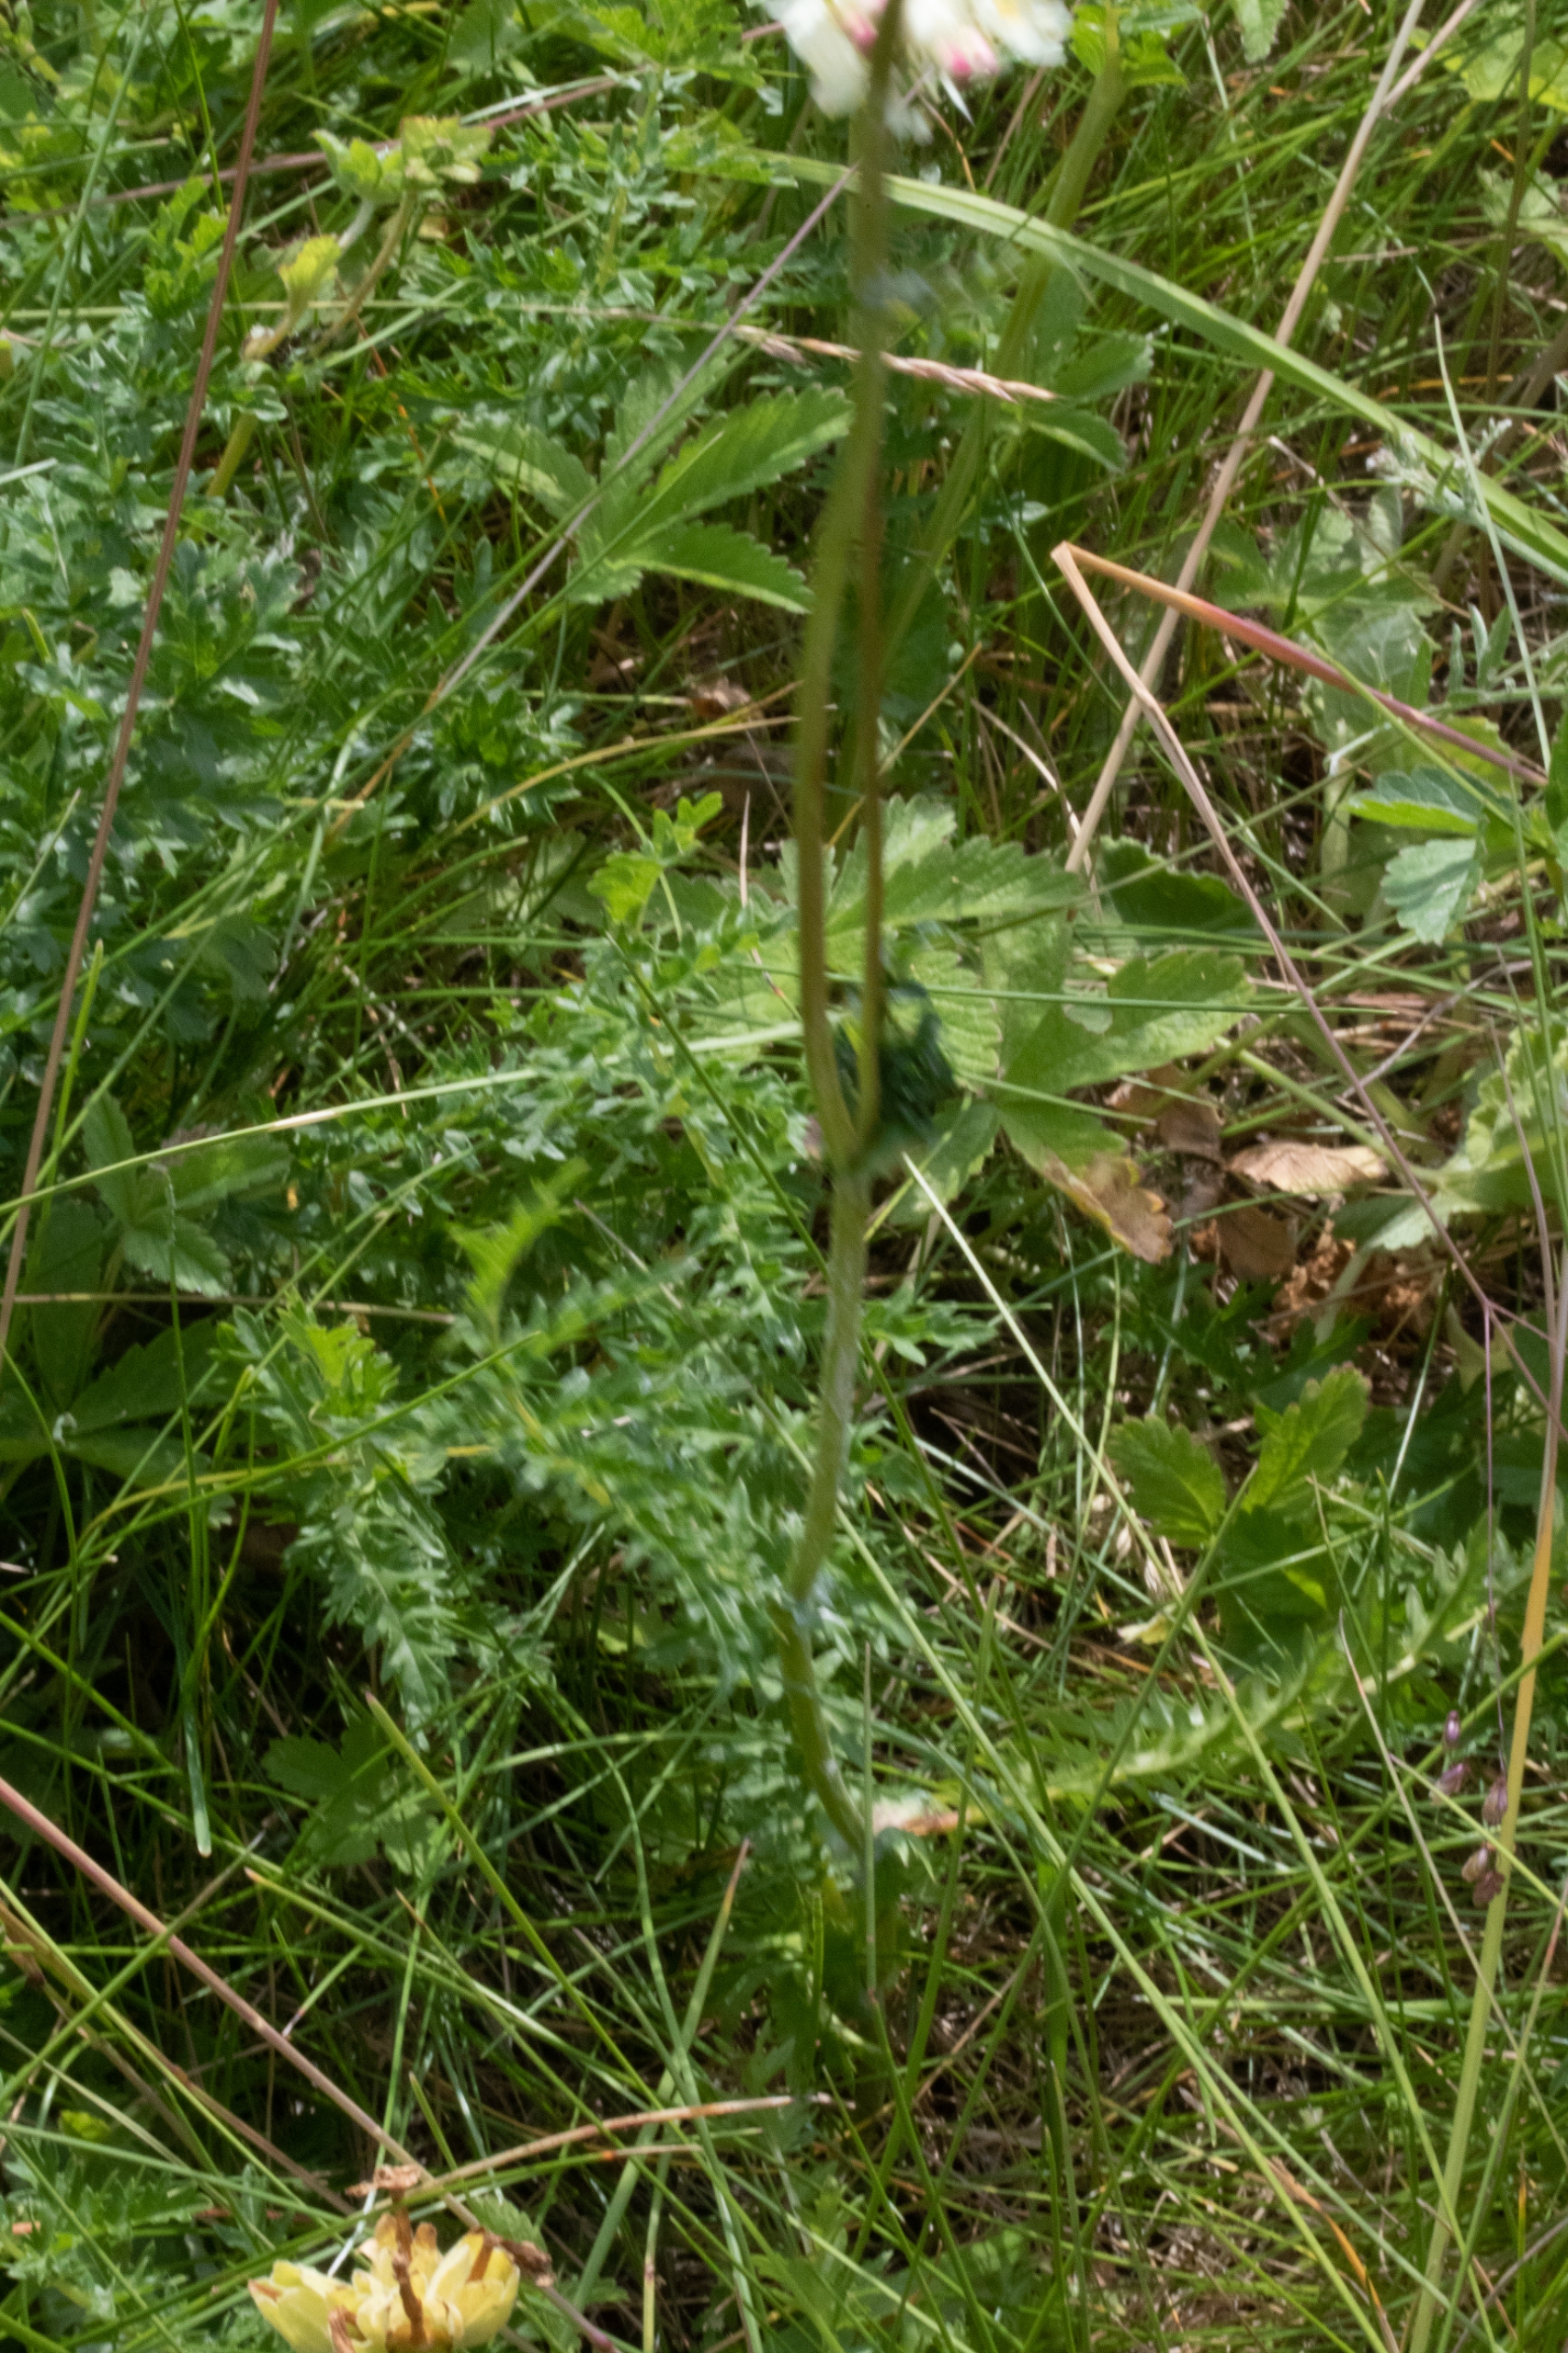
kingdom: Plantae
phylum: Tracheophyta
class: Magnoliopsida
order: Rosales
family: Rosaceae
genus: Filipendula
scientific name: Filipendula vulgaris
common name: Knoldet mjødurt
